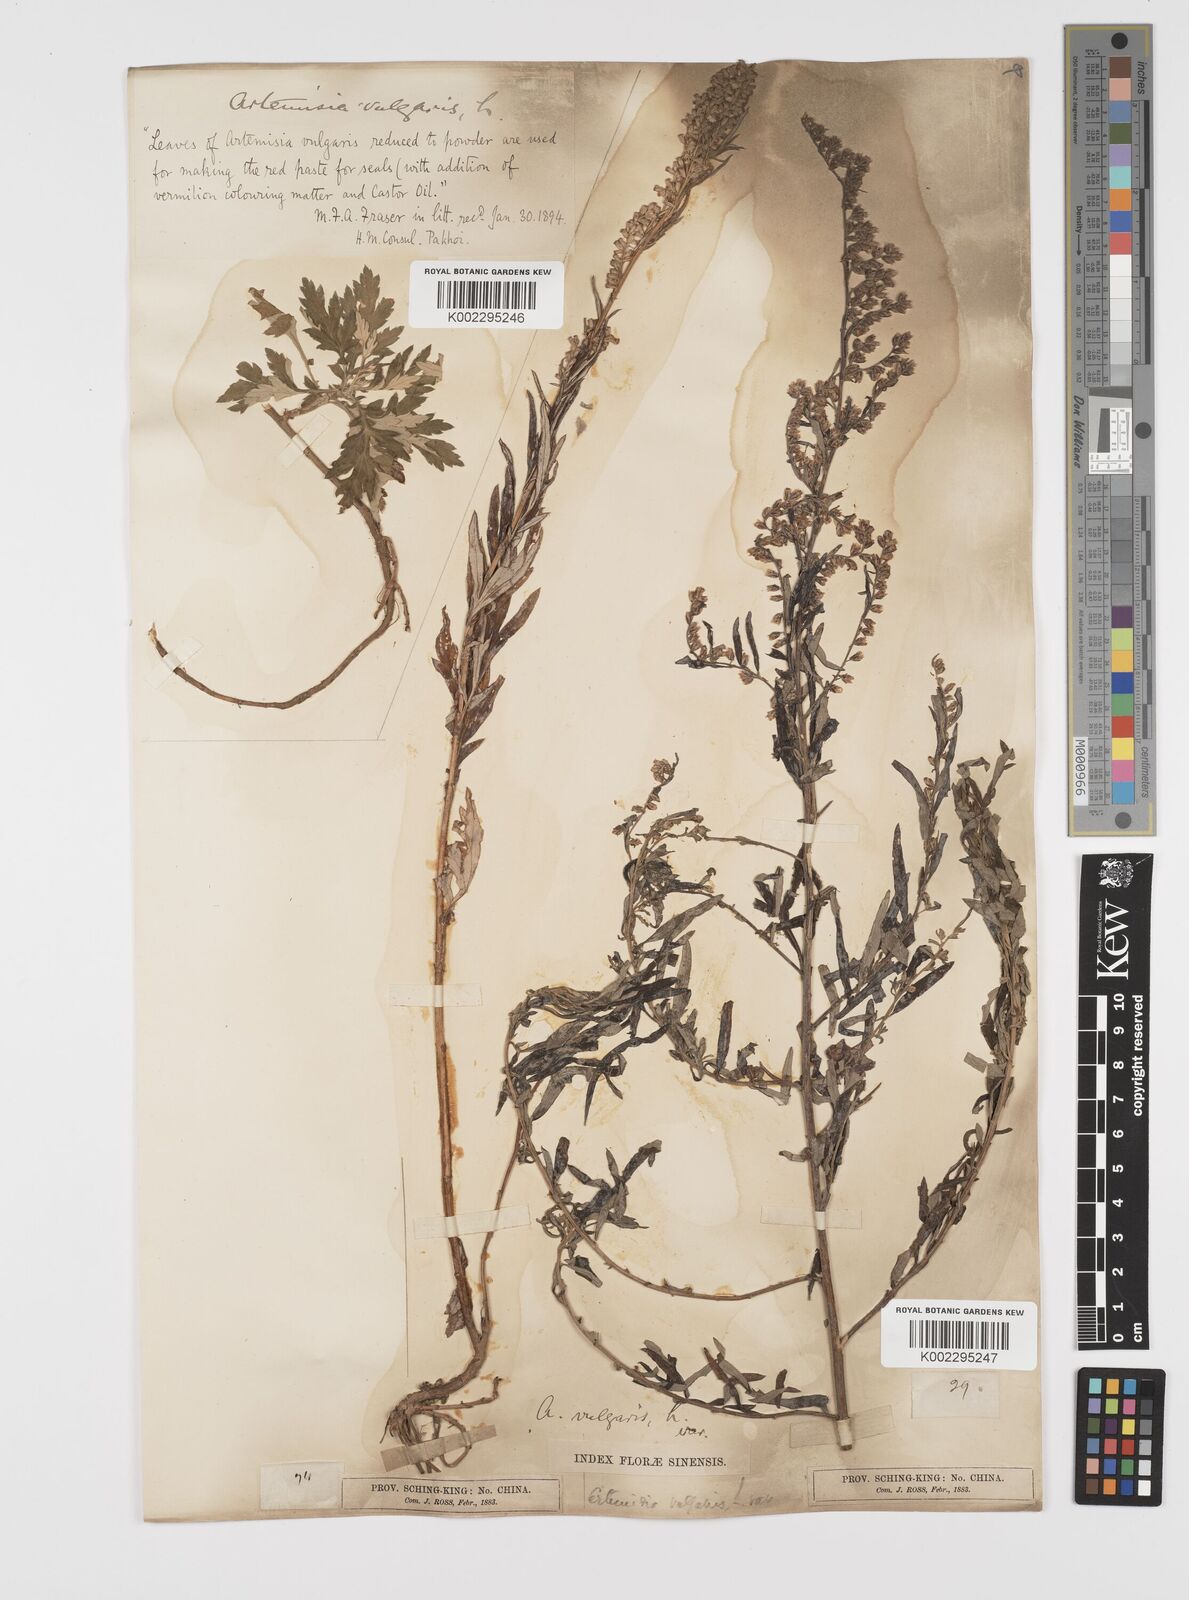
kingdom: Plantae
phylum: Tracheophyta
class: Magnoliopsida
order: Asterales
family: Asteraceae
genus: Artemisia
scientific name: Artemisia indica
